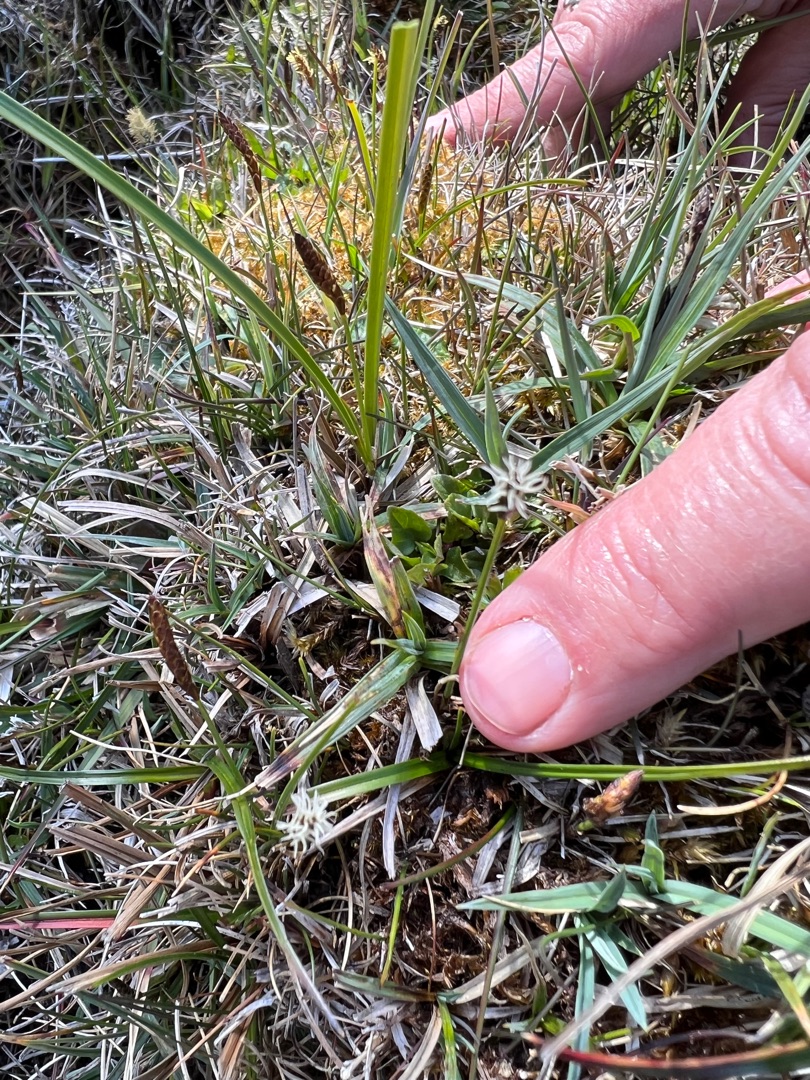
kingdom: Plantae
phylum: Tracheophyta
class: Liliopsida
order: Poales
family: Cyperaceae
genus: Carex
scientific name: Carex dioica
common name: Tvebo star
